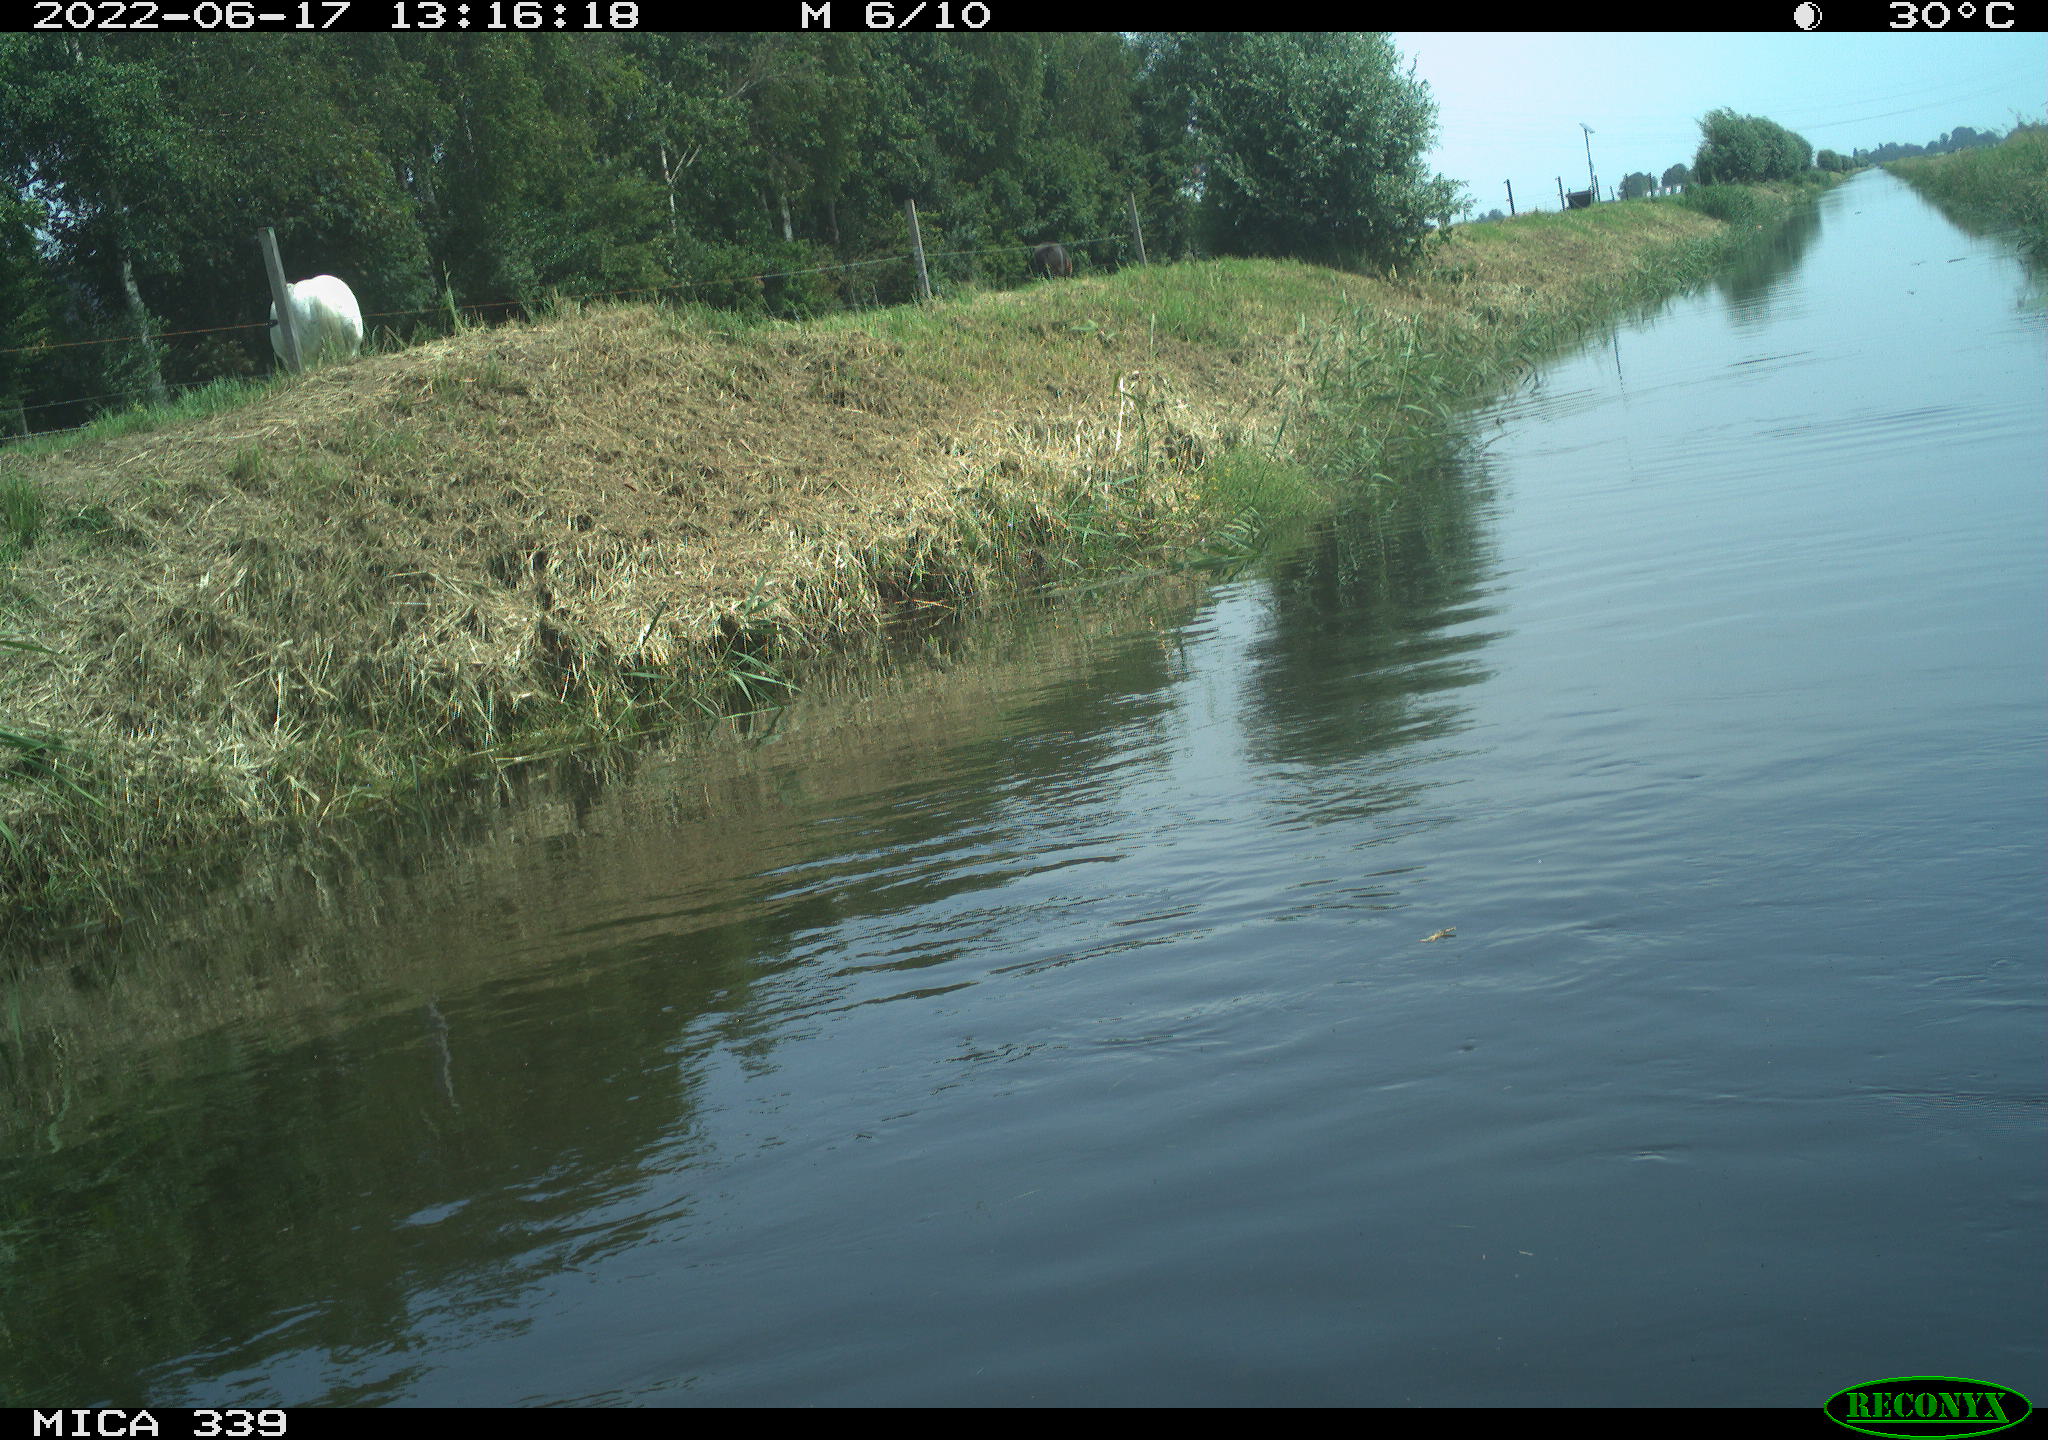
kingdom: Animalia
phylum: Chordata
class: Mammalia
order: Perissodactyla
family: Equidae
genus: Equus
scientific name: Equus caballus
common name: Horse
